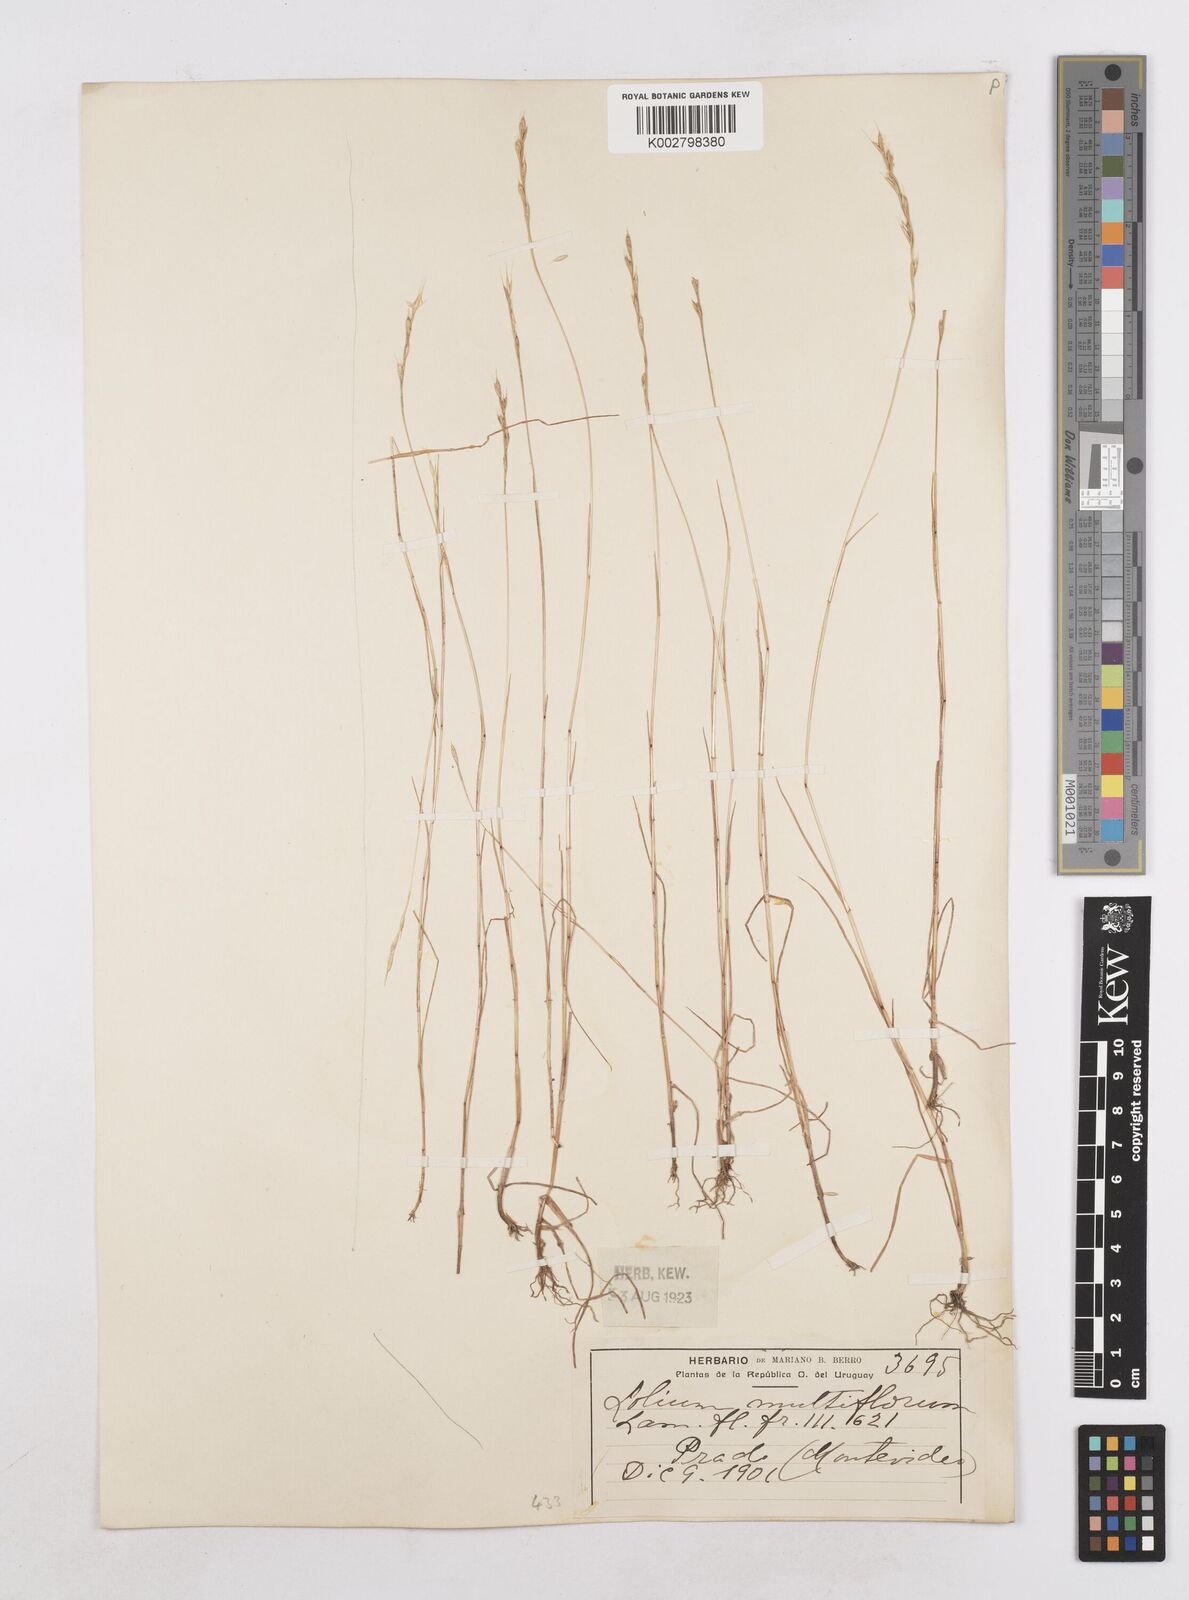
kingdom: Plantae
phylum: Tracheophyta
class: Liliopsida
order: Poales
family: Poaceae
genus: Lolium
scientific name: Lolium multiflorum
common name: Annual ryegrass
